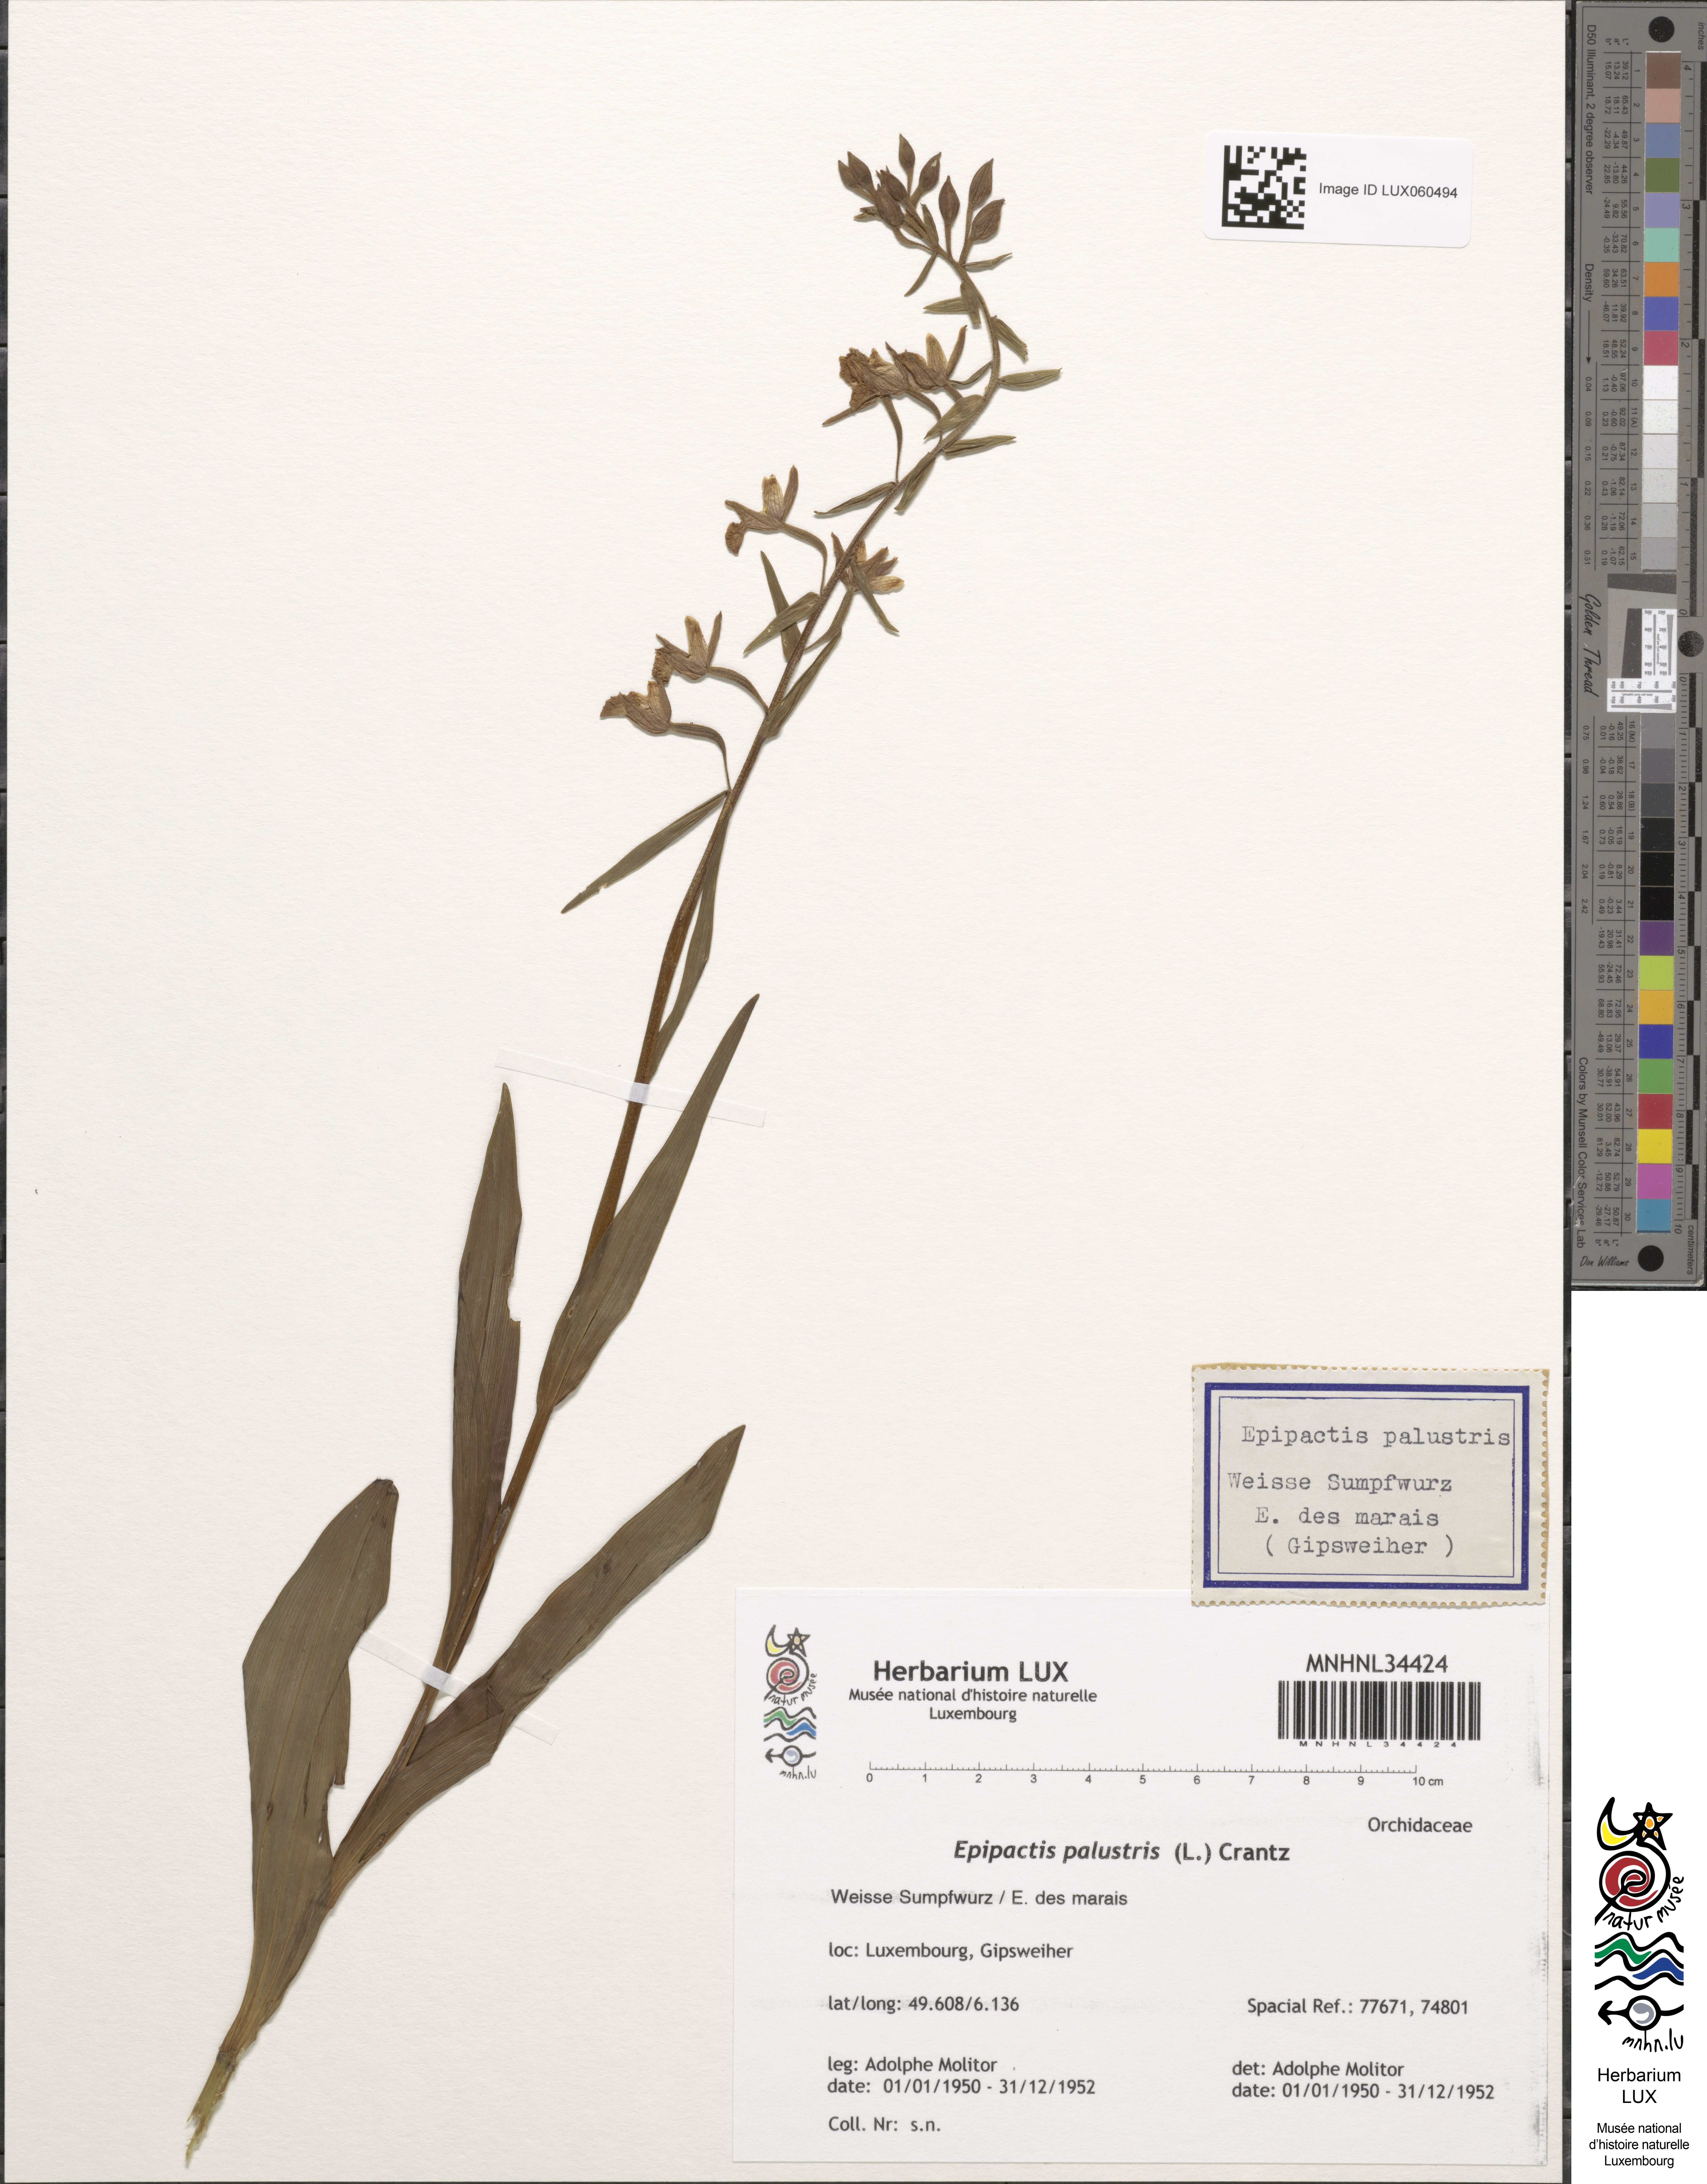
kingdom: Plantae
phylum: Tracheophyta
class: Liliopsida
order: Asparagales
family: Orchidaceae
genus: Epipactis
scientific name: Epipactis palustris
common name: Marsh helleborine
